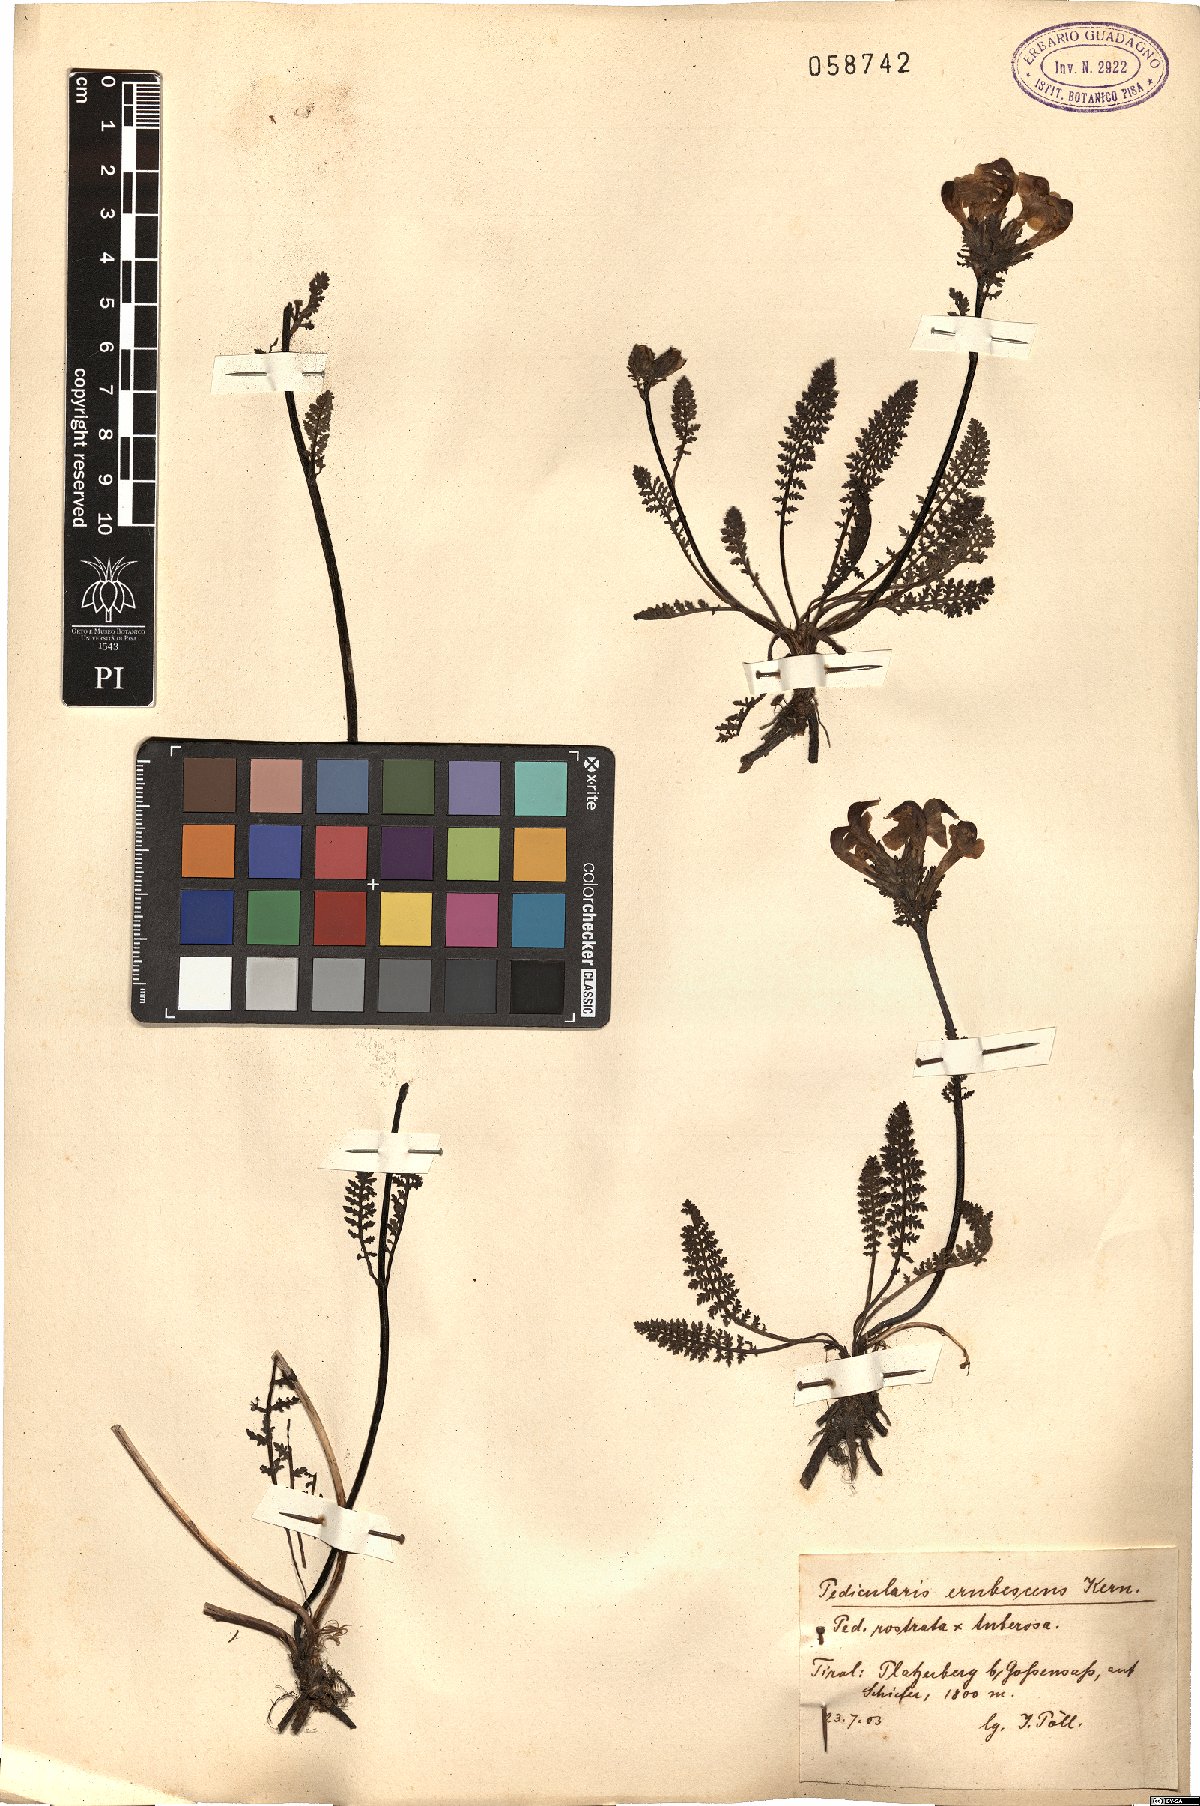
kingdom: Plantae
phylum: Tracheophyta
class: Magnoliopsida
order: Lamiales
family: Orobanchaceae
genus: Pedicularis
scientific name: Pedicularis rostratocapitata
